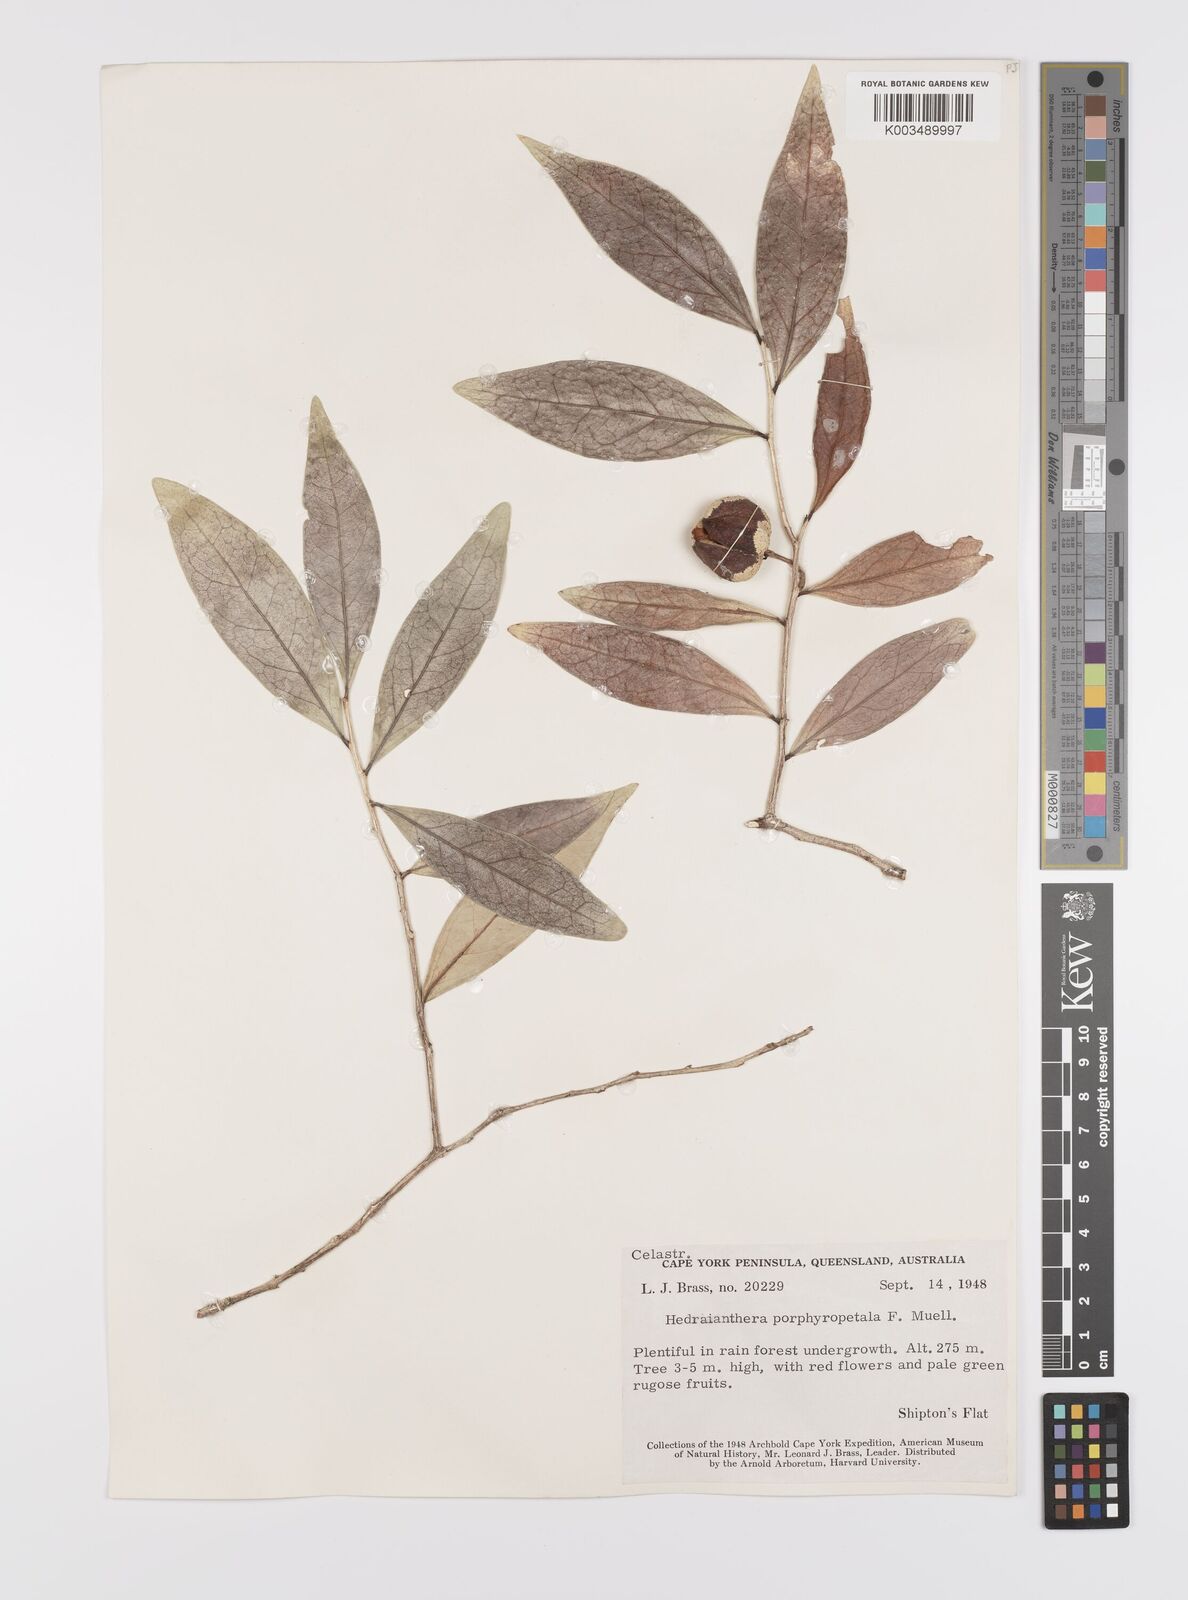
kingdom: Plantae
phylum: Tracheophyta
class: Magnoliopsida
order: Celastrales
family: Celastraceae
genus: Hedraianthera
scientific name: Hedraianthera porphyropetala
